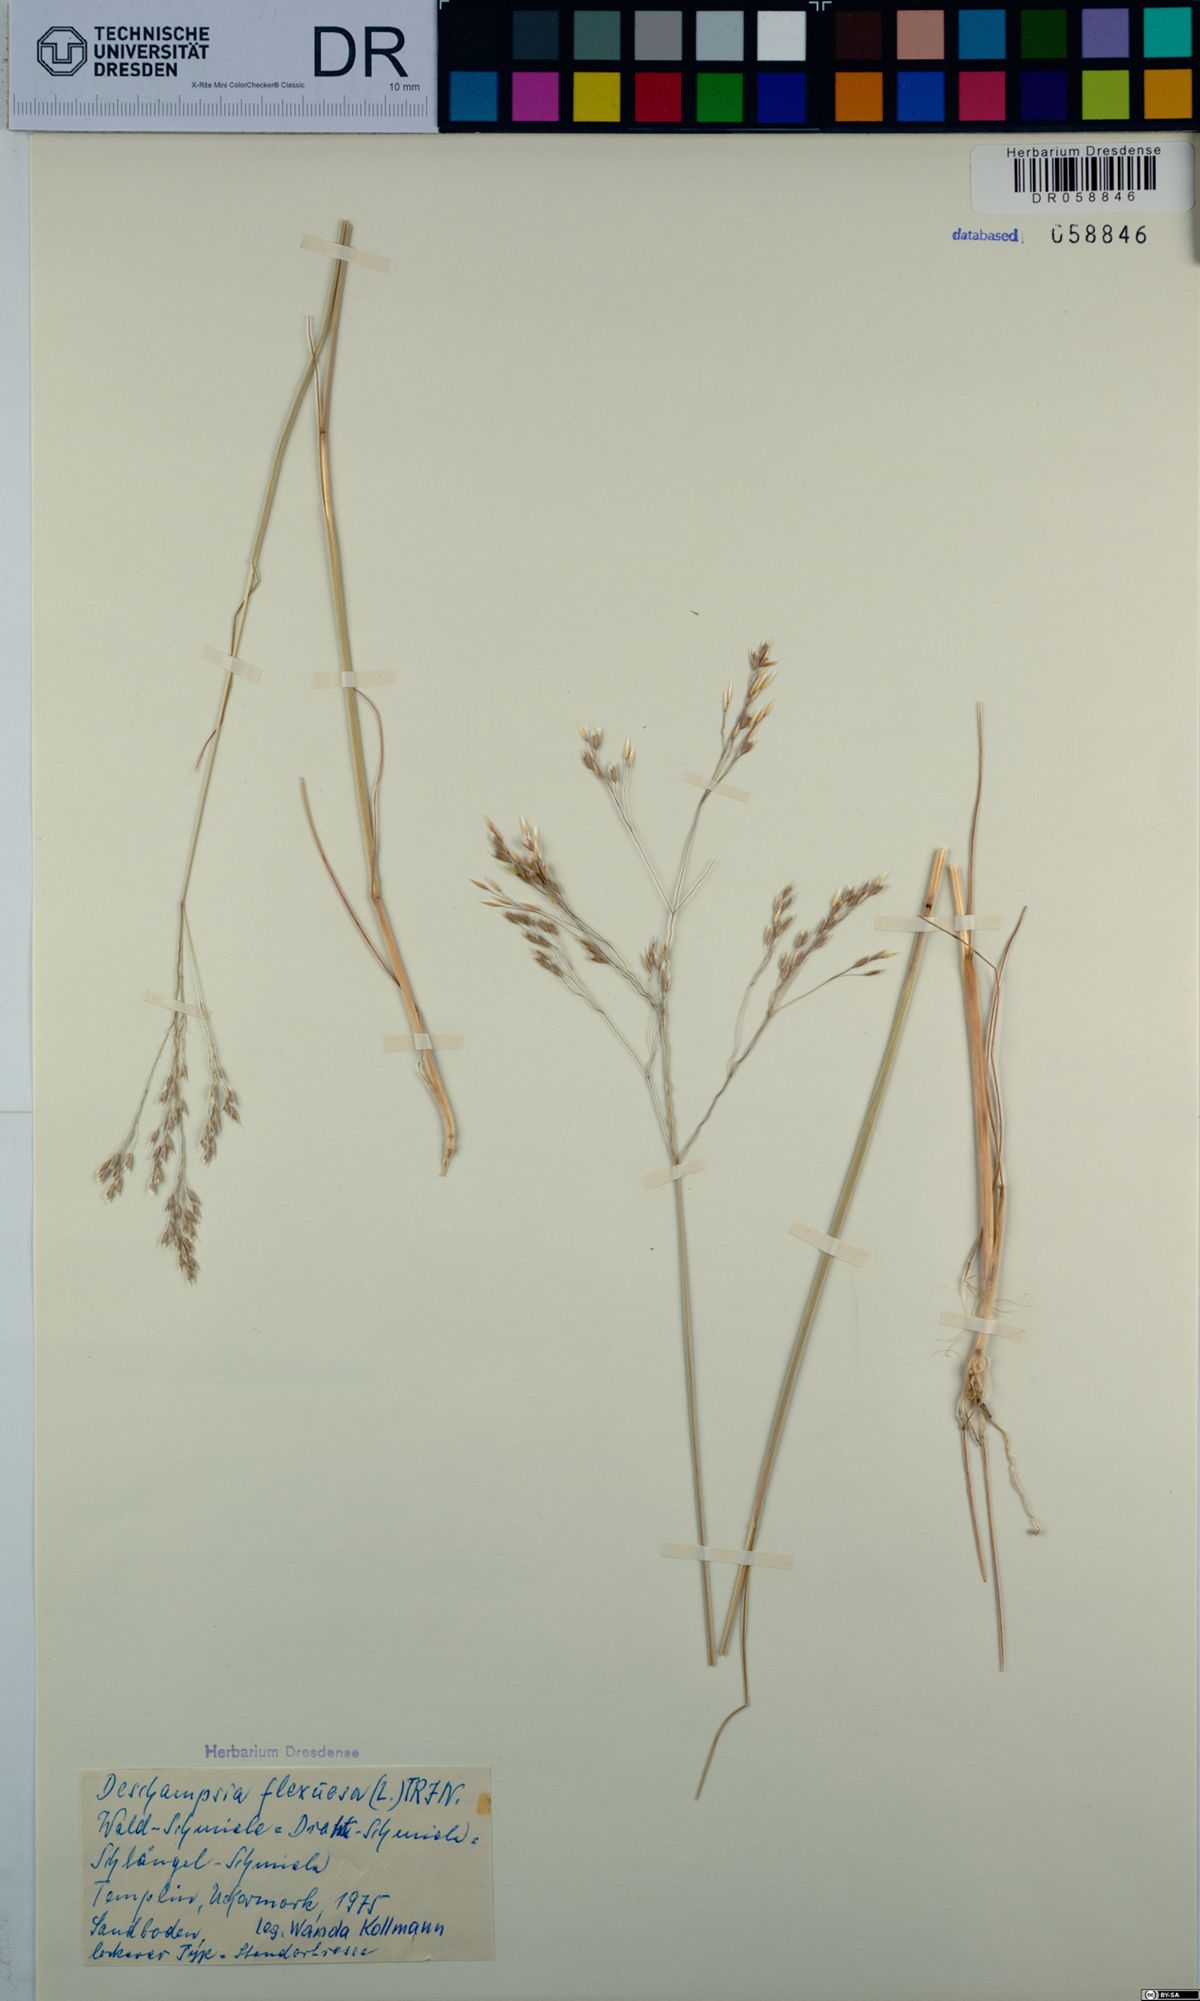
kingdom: Plantae
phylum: Tracheophyta
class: Liliopsida
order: Poales
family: Poaceae
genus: Avenella
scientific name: Avenella flexuosa
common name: Wavy hairgrass
